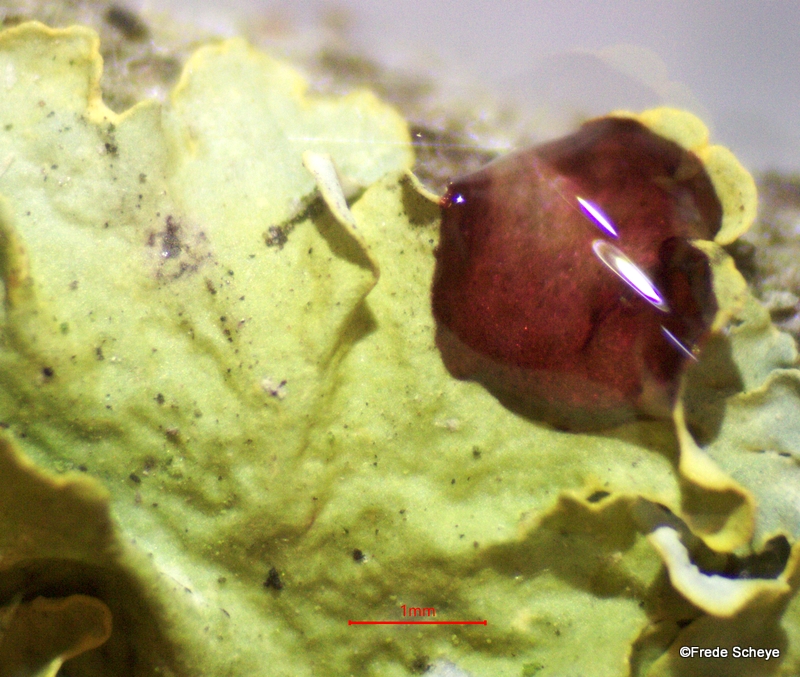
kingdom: Fungi
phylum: Ascomycota
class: Lecanoromycetes
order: Teloschistales
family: Teloschistaceae
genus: Xanthoria
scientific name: Xanthoria parietina
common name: almindelig væggelav
